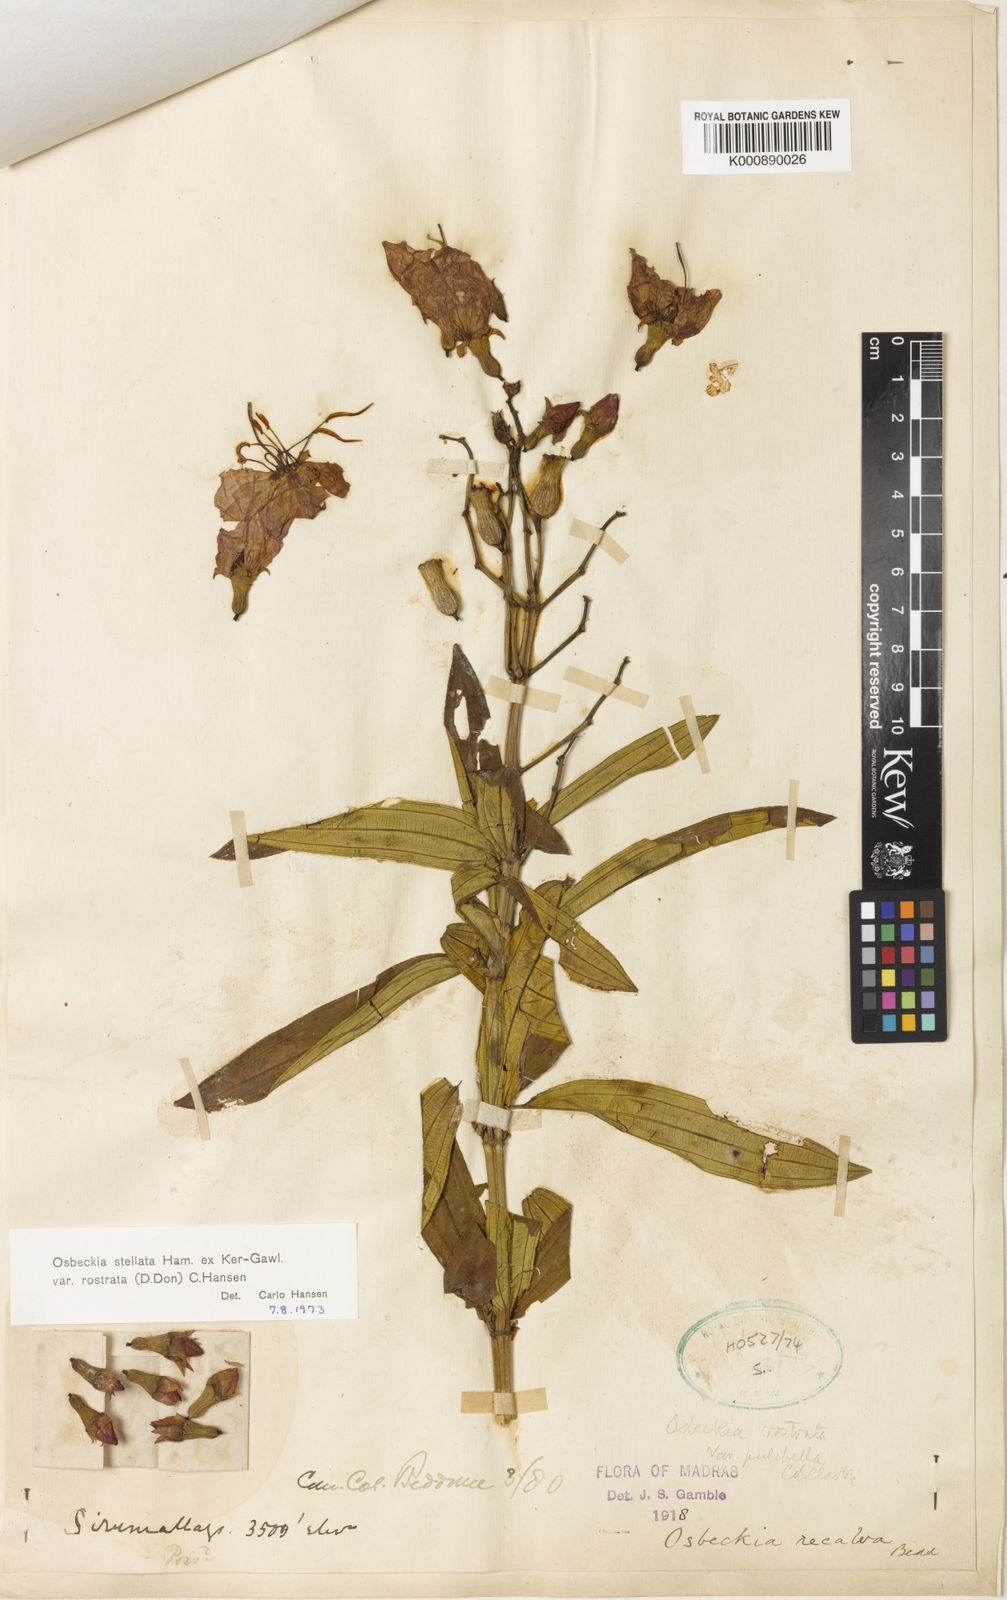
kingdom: Plantae
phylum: Tracheophyta
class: Magnoliopsida
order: Myrtales
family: Melastomataceae
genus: Osbeckia
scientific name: Osbeckia rostrata
